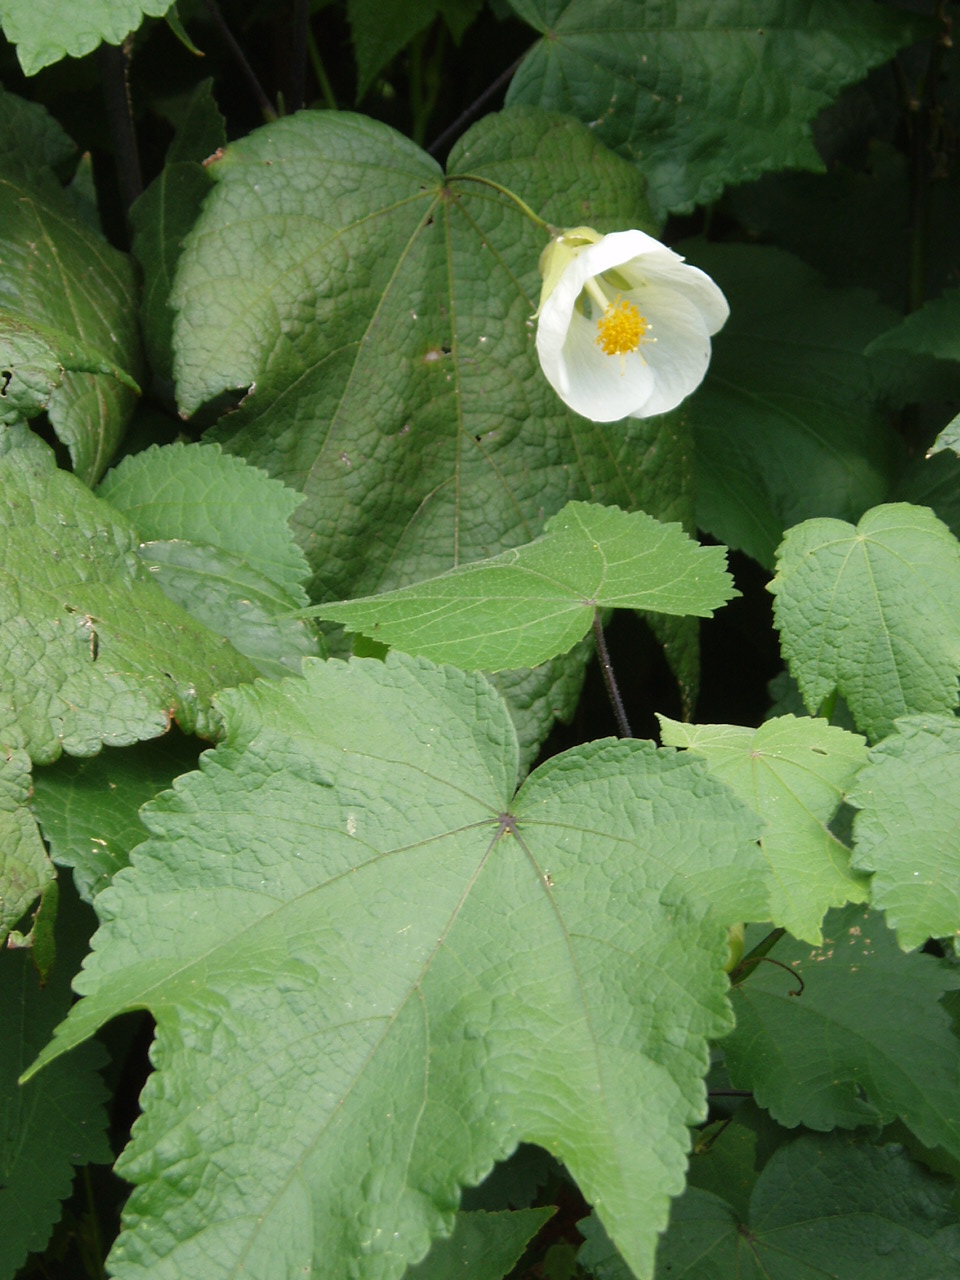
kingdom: Plantae
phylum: Tracheophyta
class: Magnoliopsida
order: Malvales
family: Malvaceae
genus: Abutilon
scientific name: Abutilon
